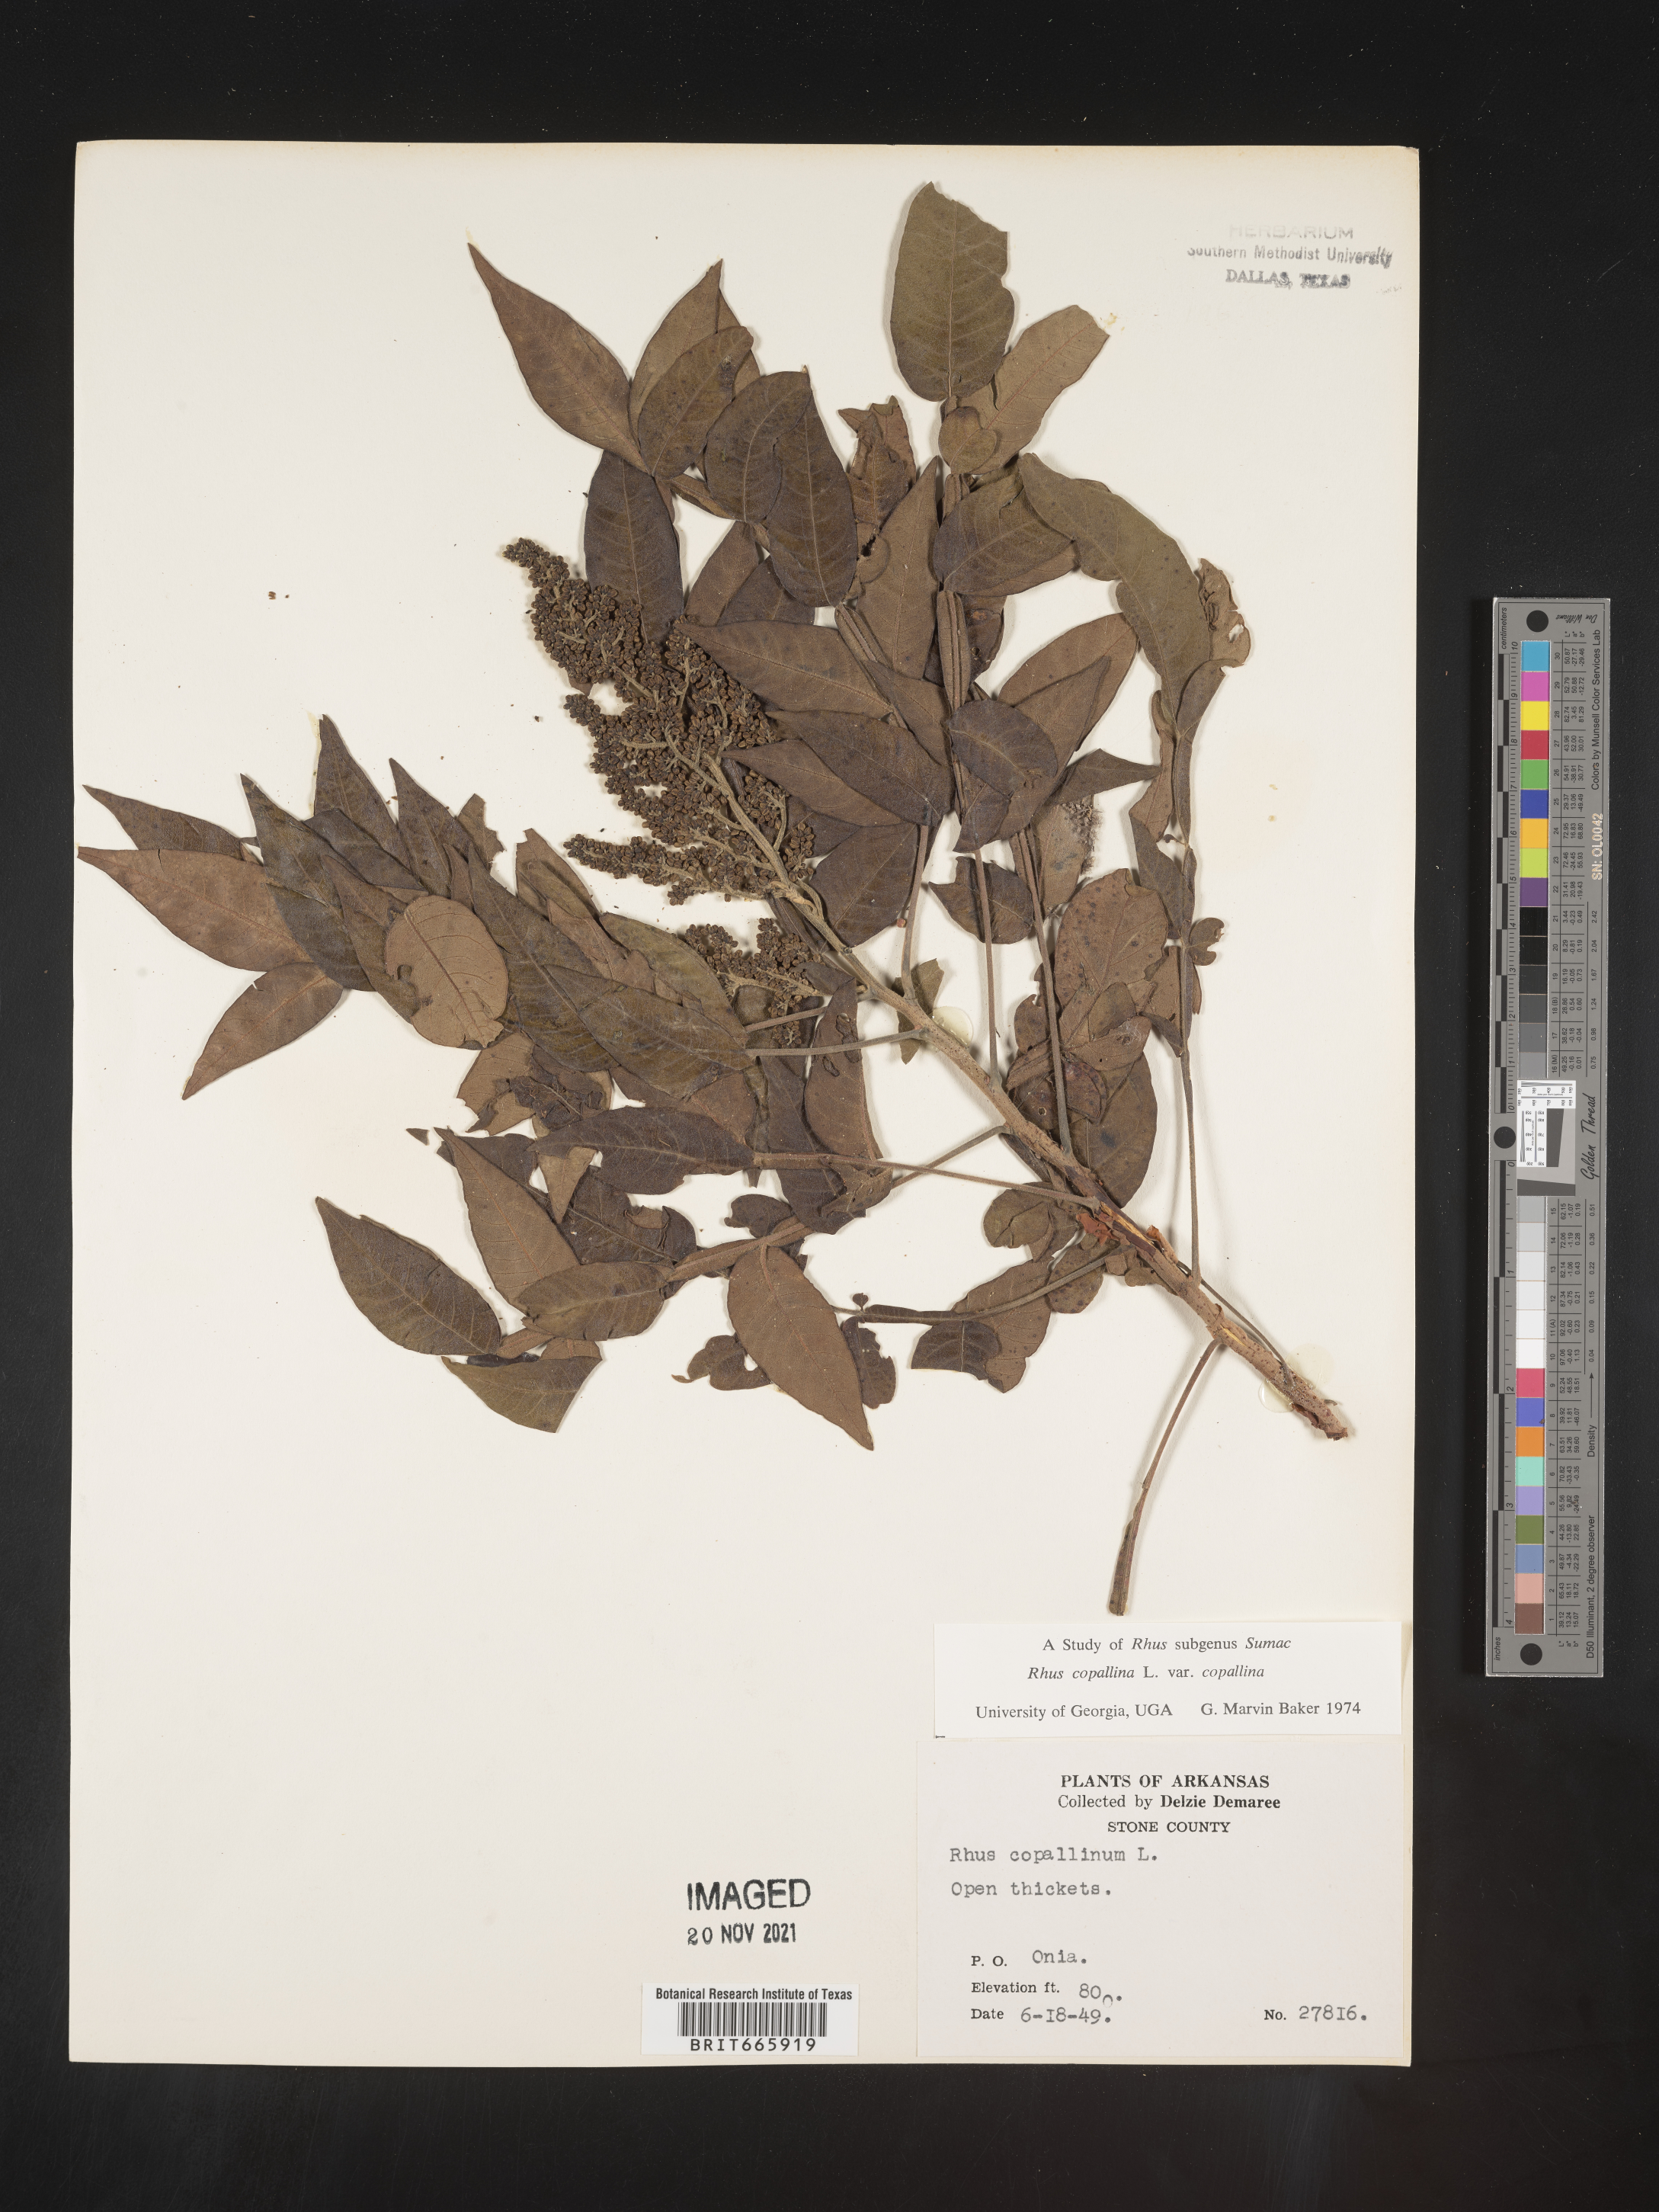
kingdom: Plantae
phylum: Tracheophyta
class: Magnoliopsida
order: Sapindales
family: Anacardiaceae
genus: Rhus
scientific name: Rhus copallina
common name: Shining sumac
